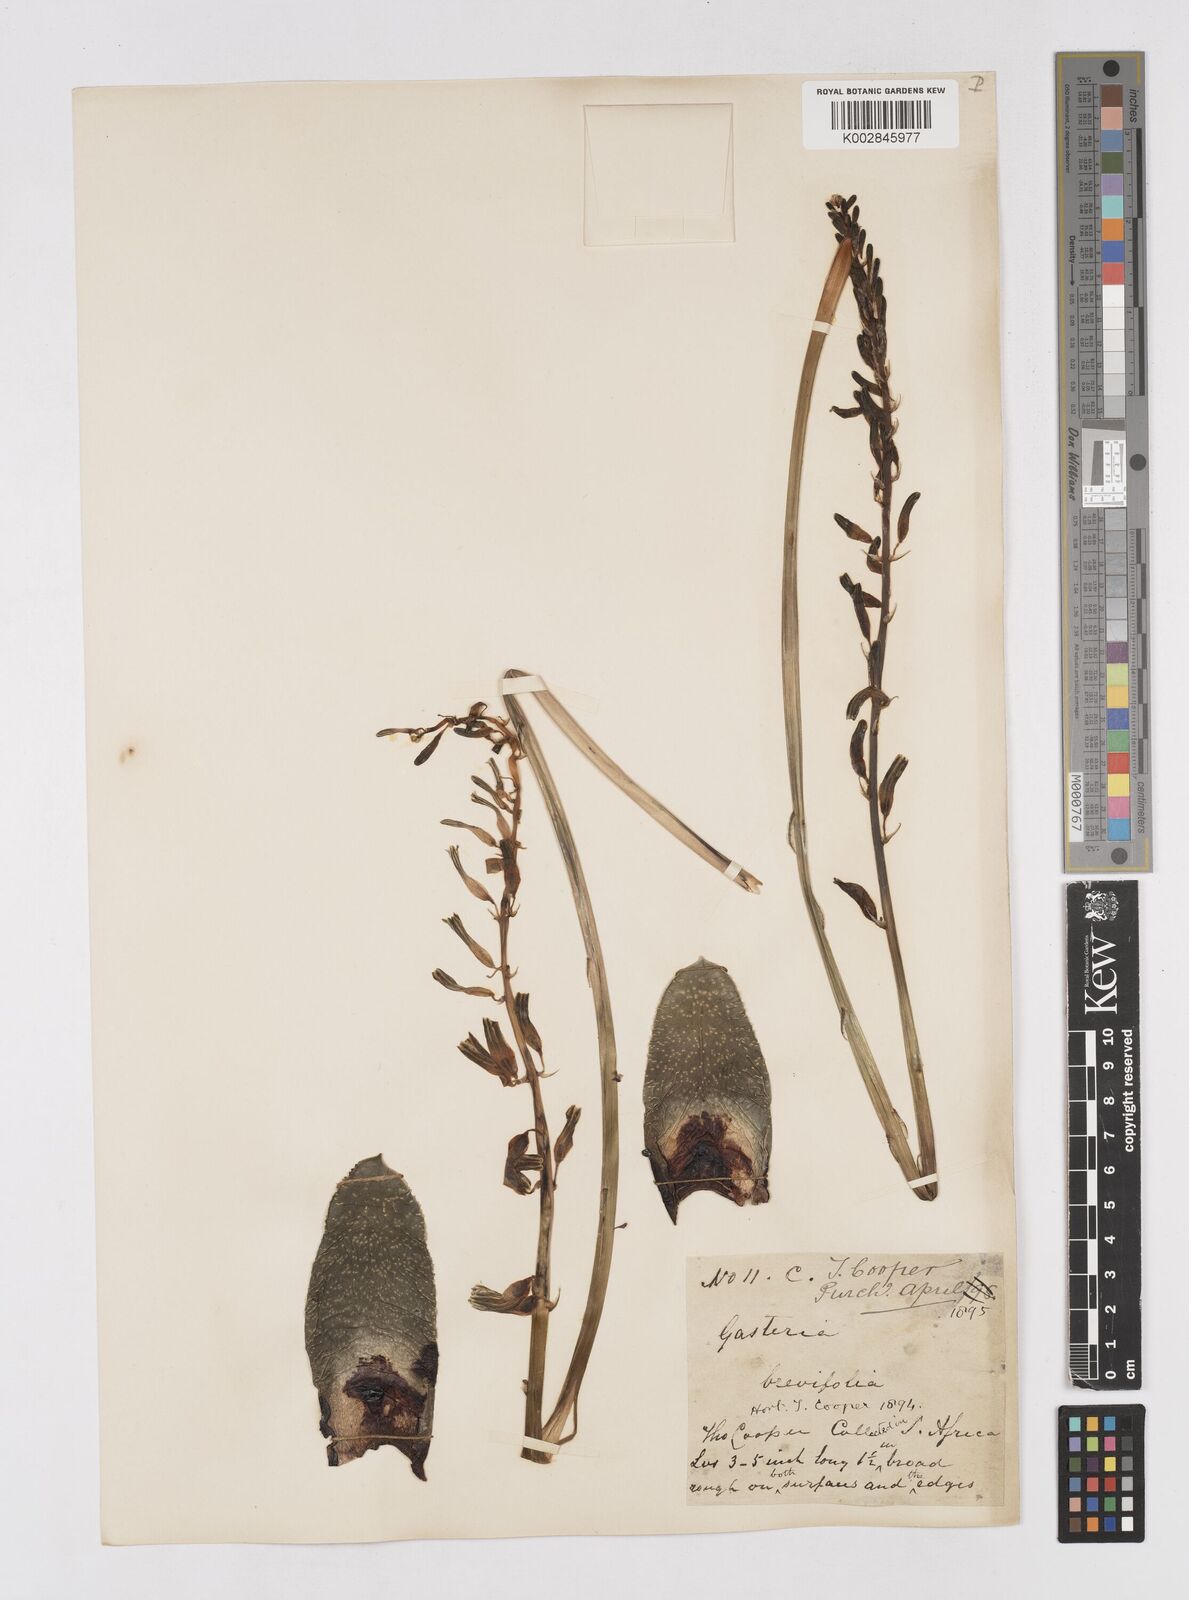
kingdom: Plantae
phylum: Tracheophyta
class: Liliopsida
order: Asparagales
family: Asphodelaceae
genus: Gasteria
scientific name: Gasteria brevifolia
